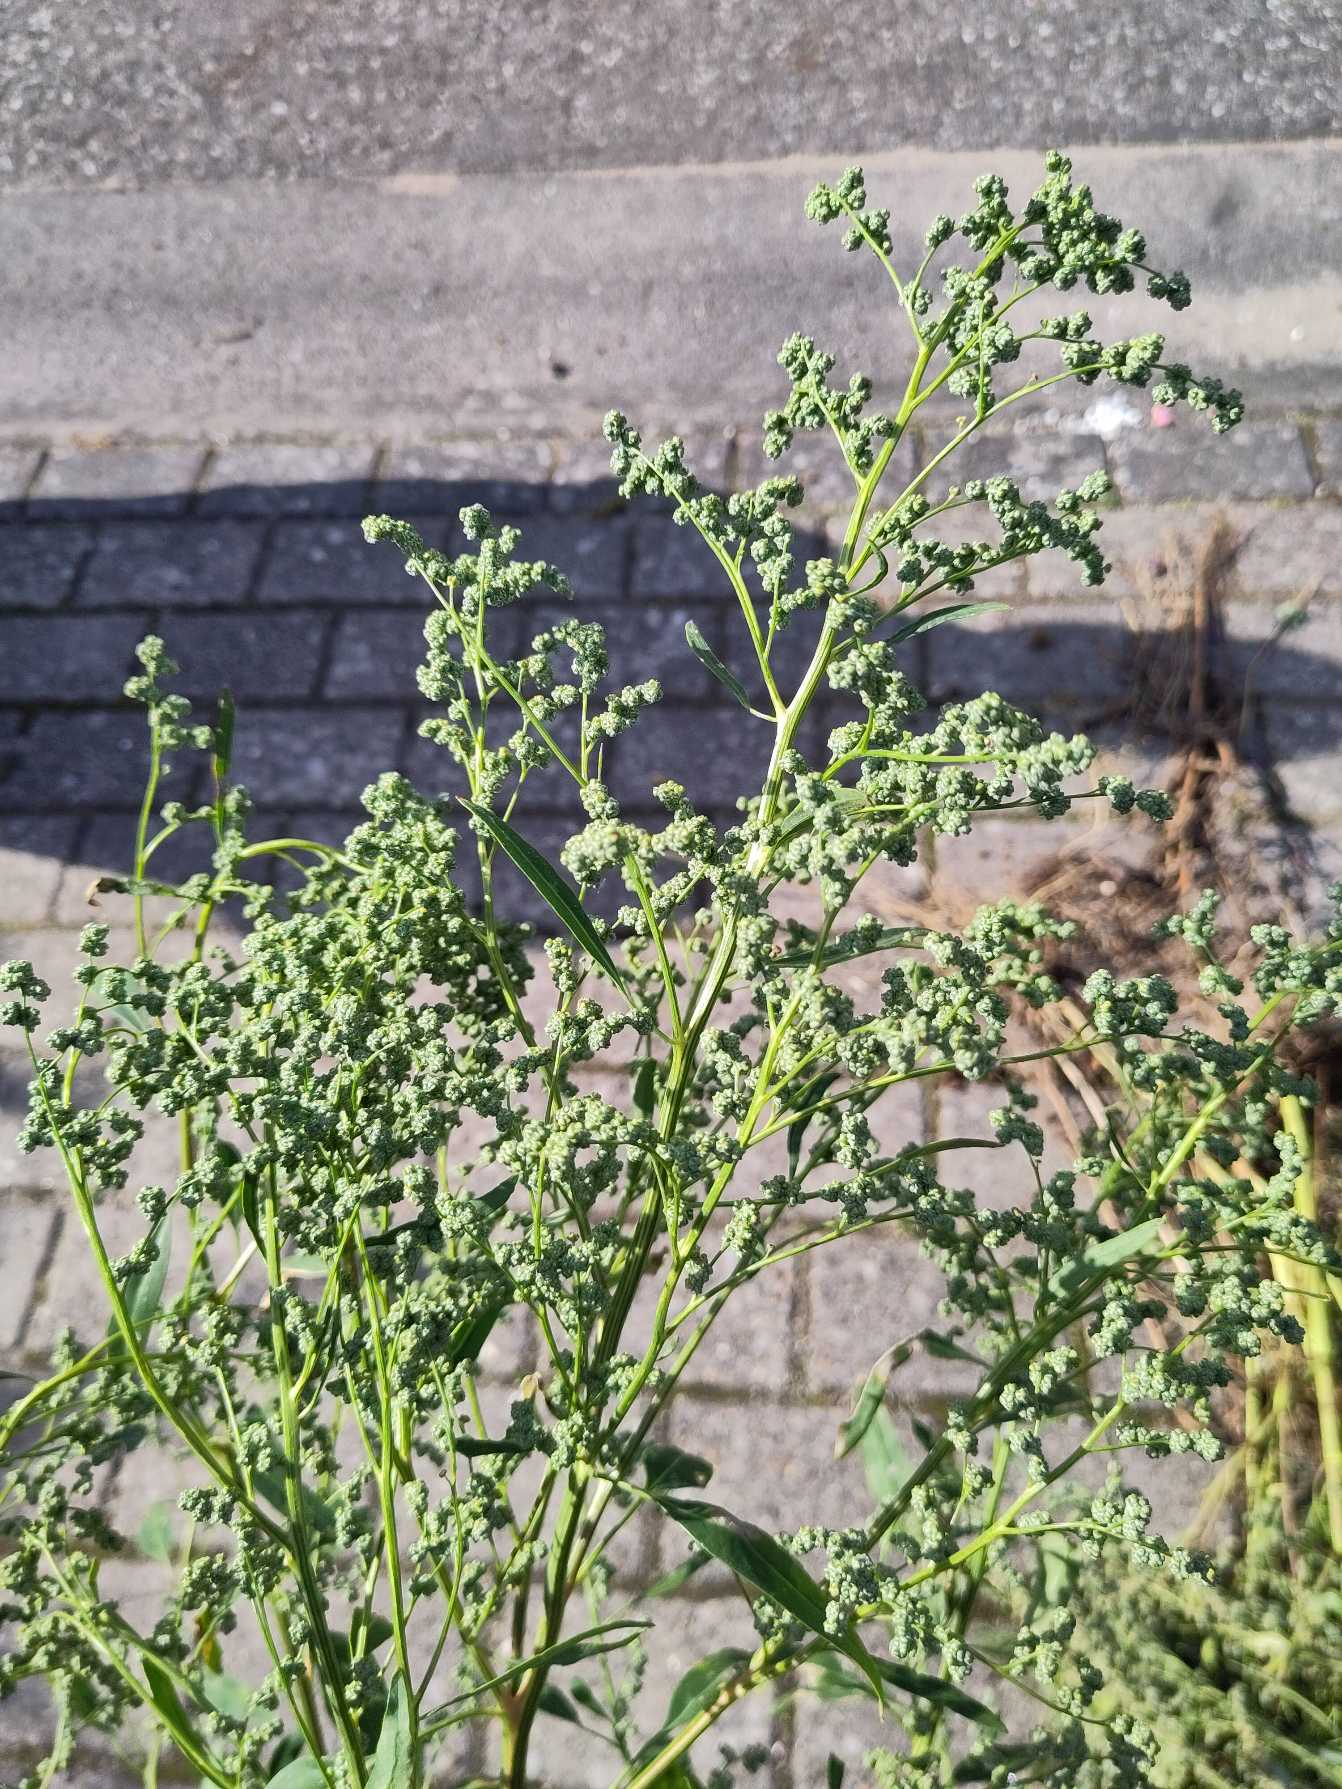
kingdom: Plantae
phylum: Tracheophyta
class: Magnoliopsida
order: Caryophyllales
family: Amaranthaceae
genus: Chenopodium
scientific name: Chenopodium
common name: Gåsefod (Chenopodium-slægten)
